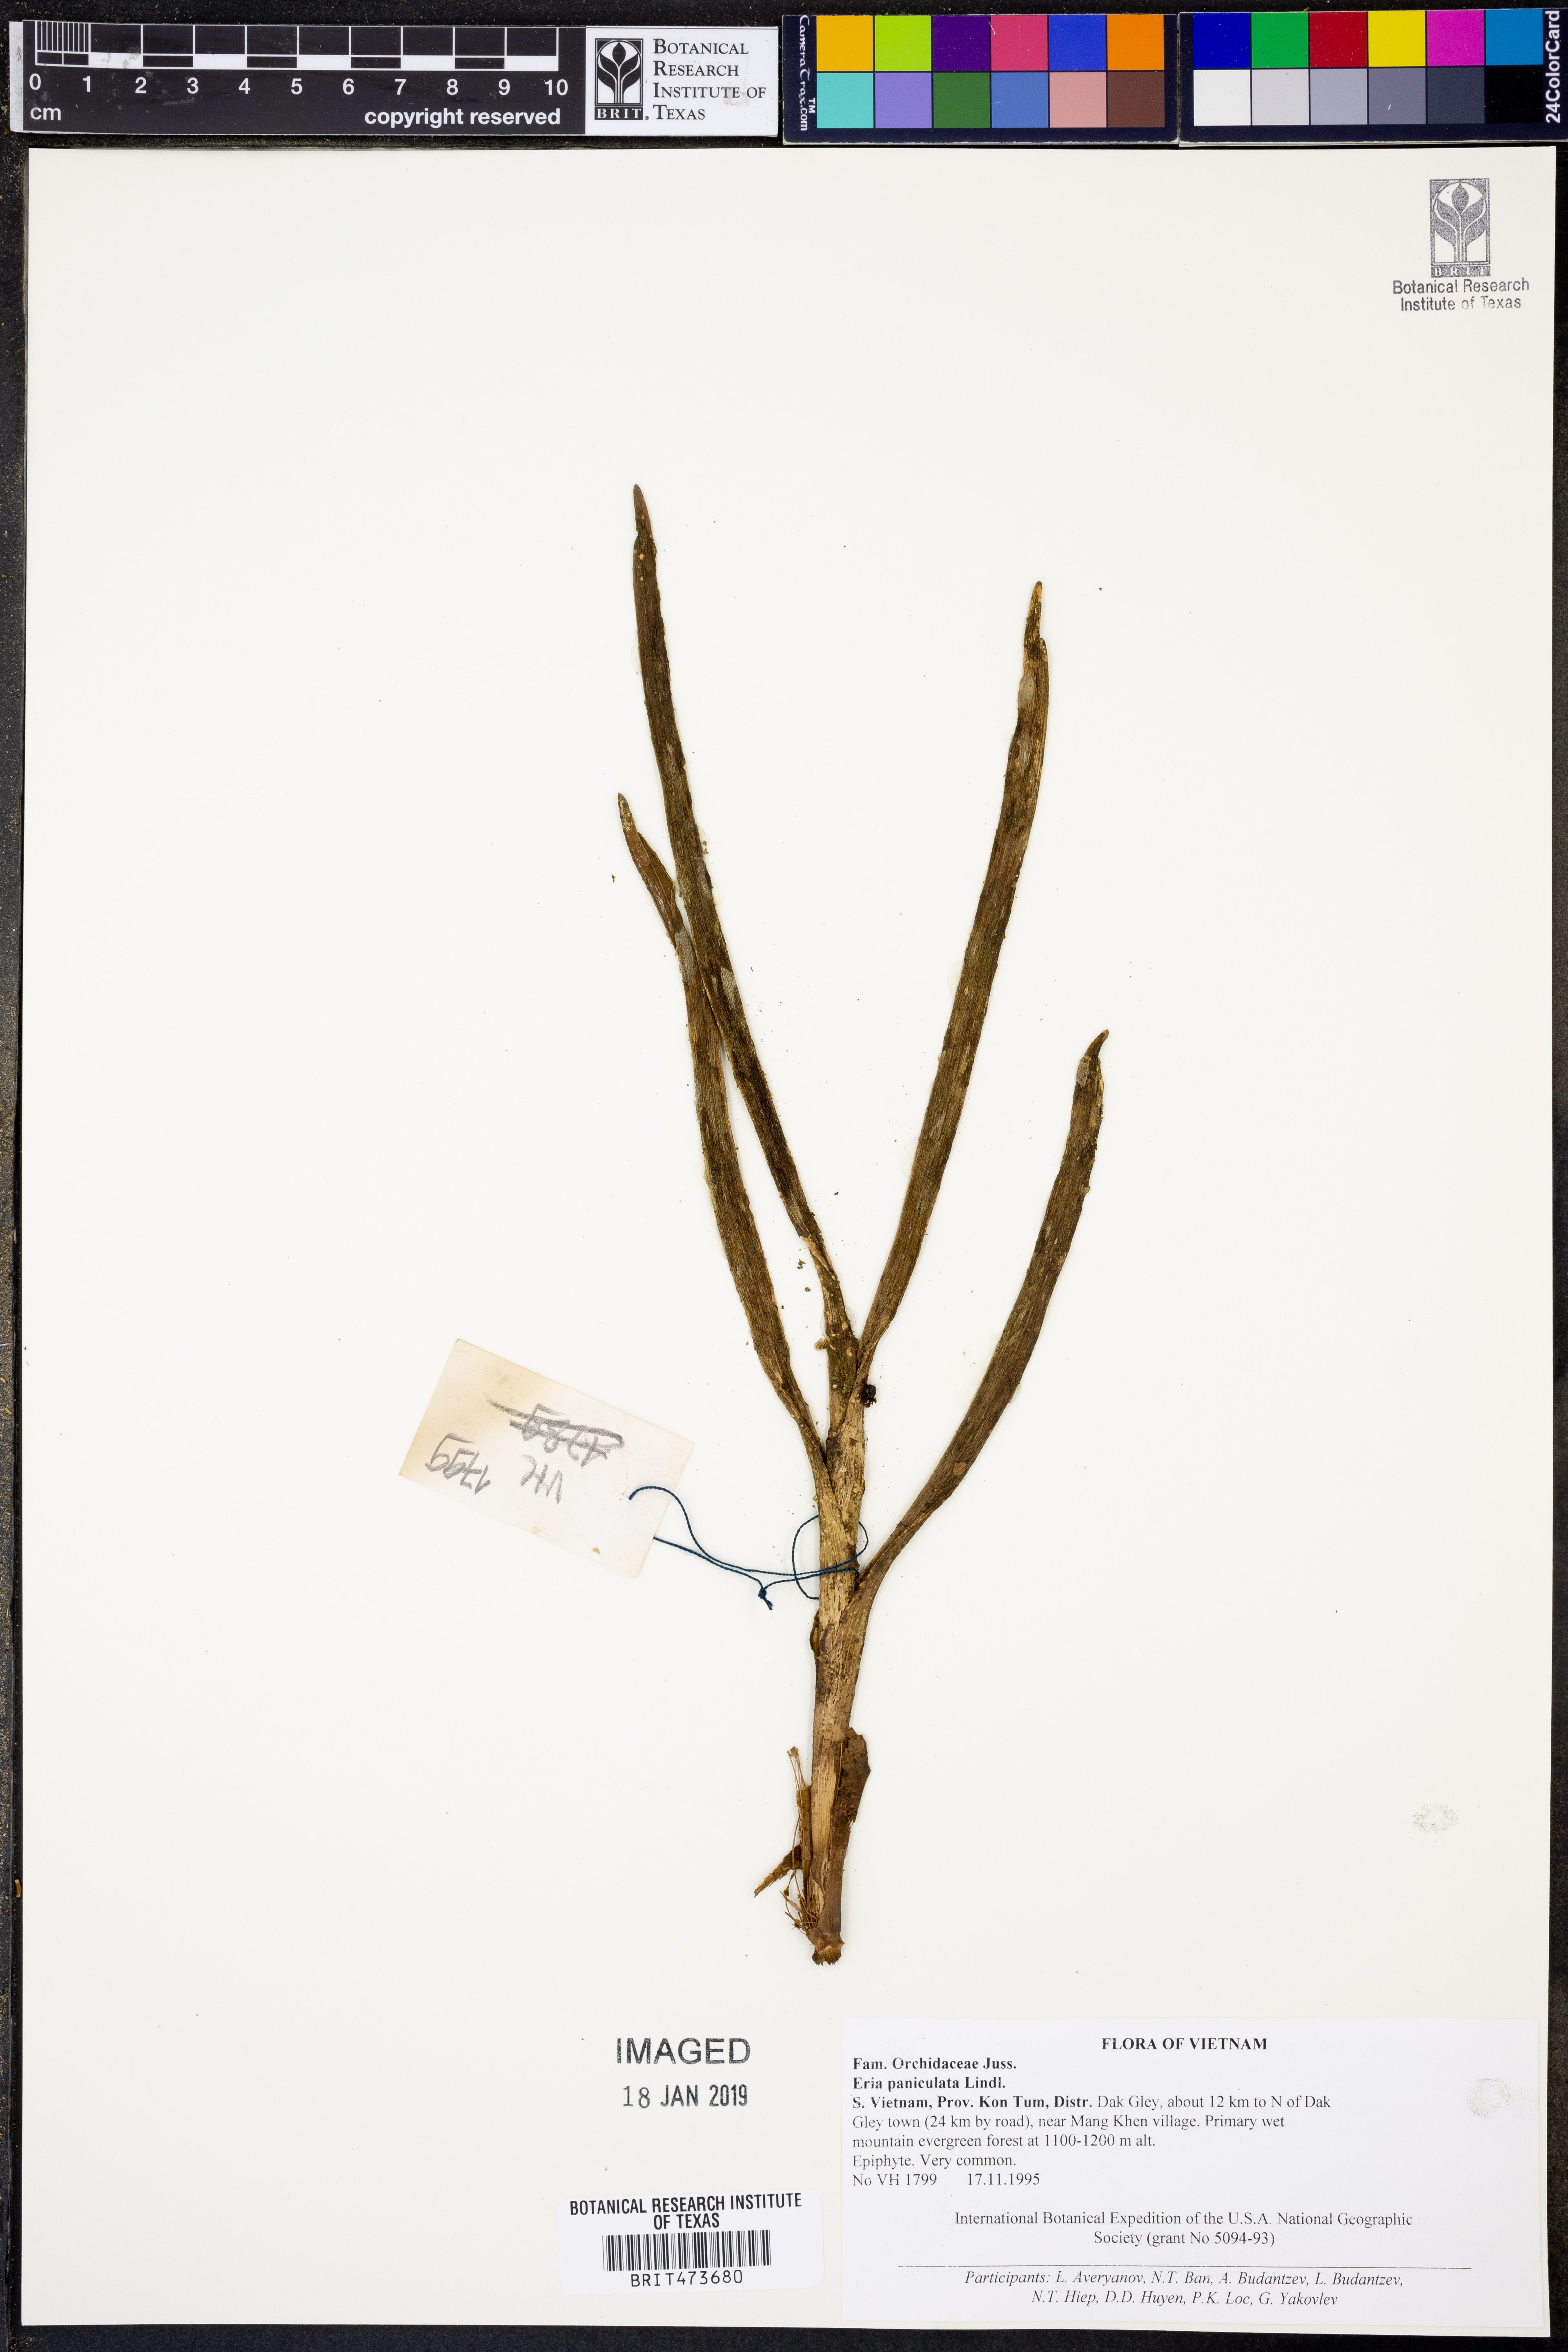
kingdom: Plantae
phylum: Tracheophyta
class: Liliopsida
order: Asparagales
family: Orchidaceae
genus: Mycaranthes
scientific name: Mycaranthes floribunda
